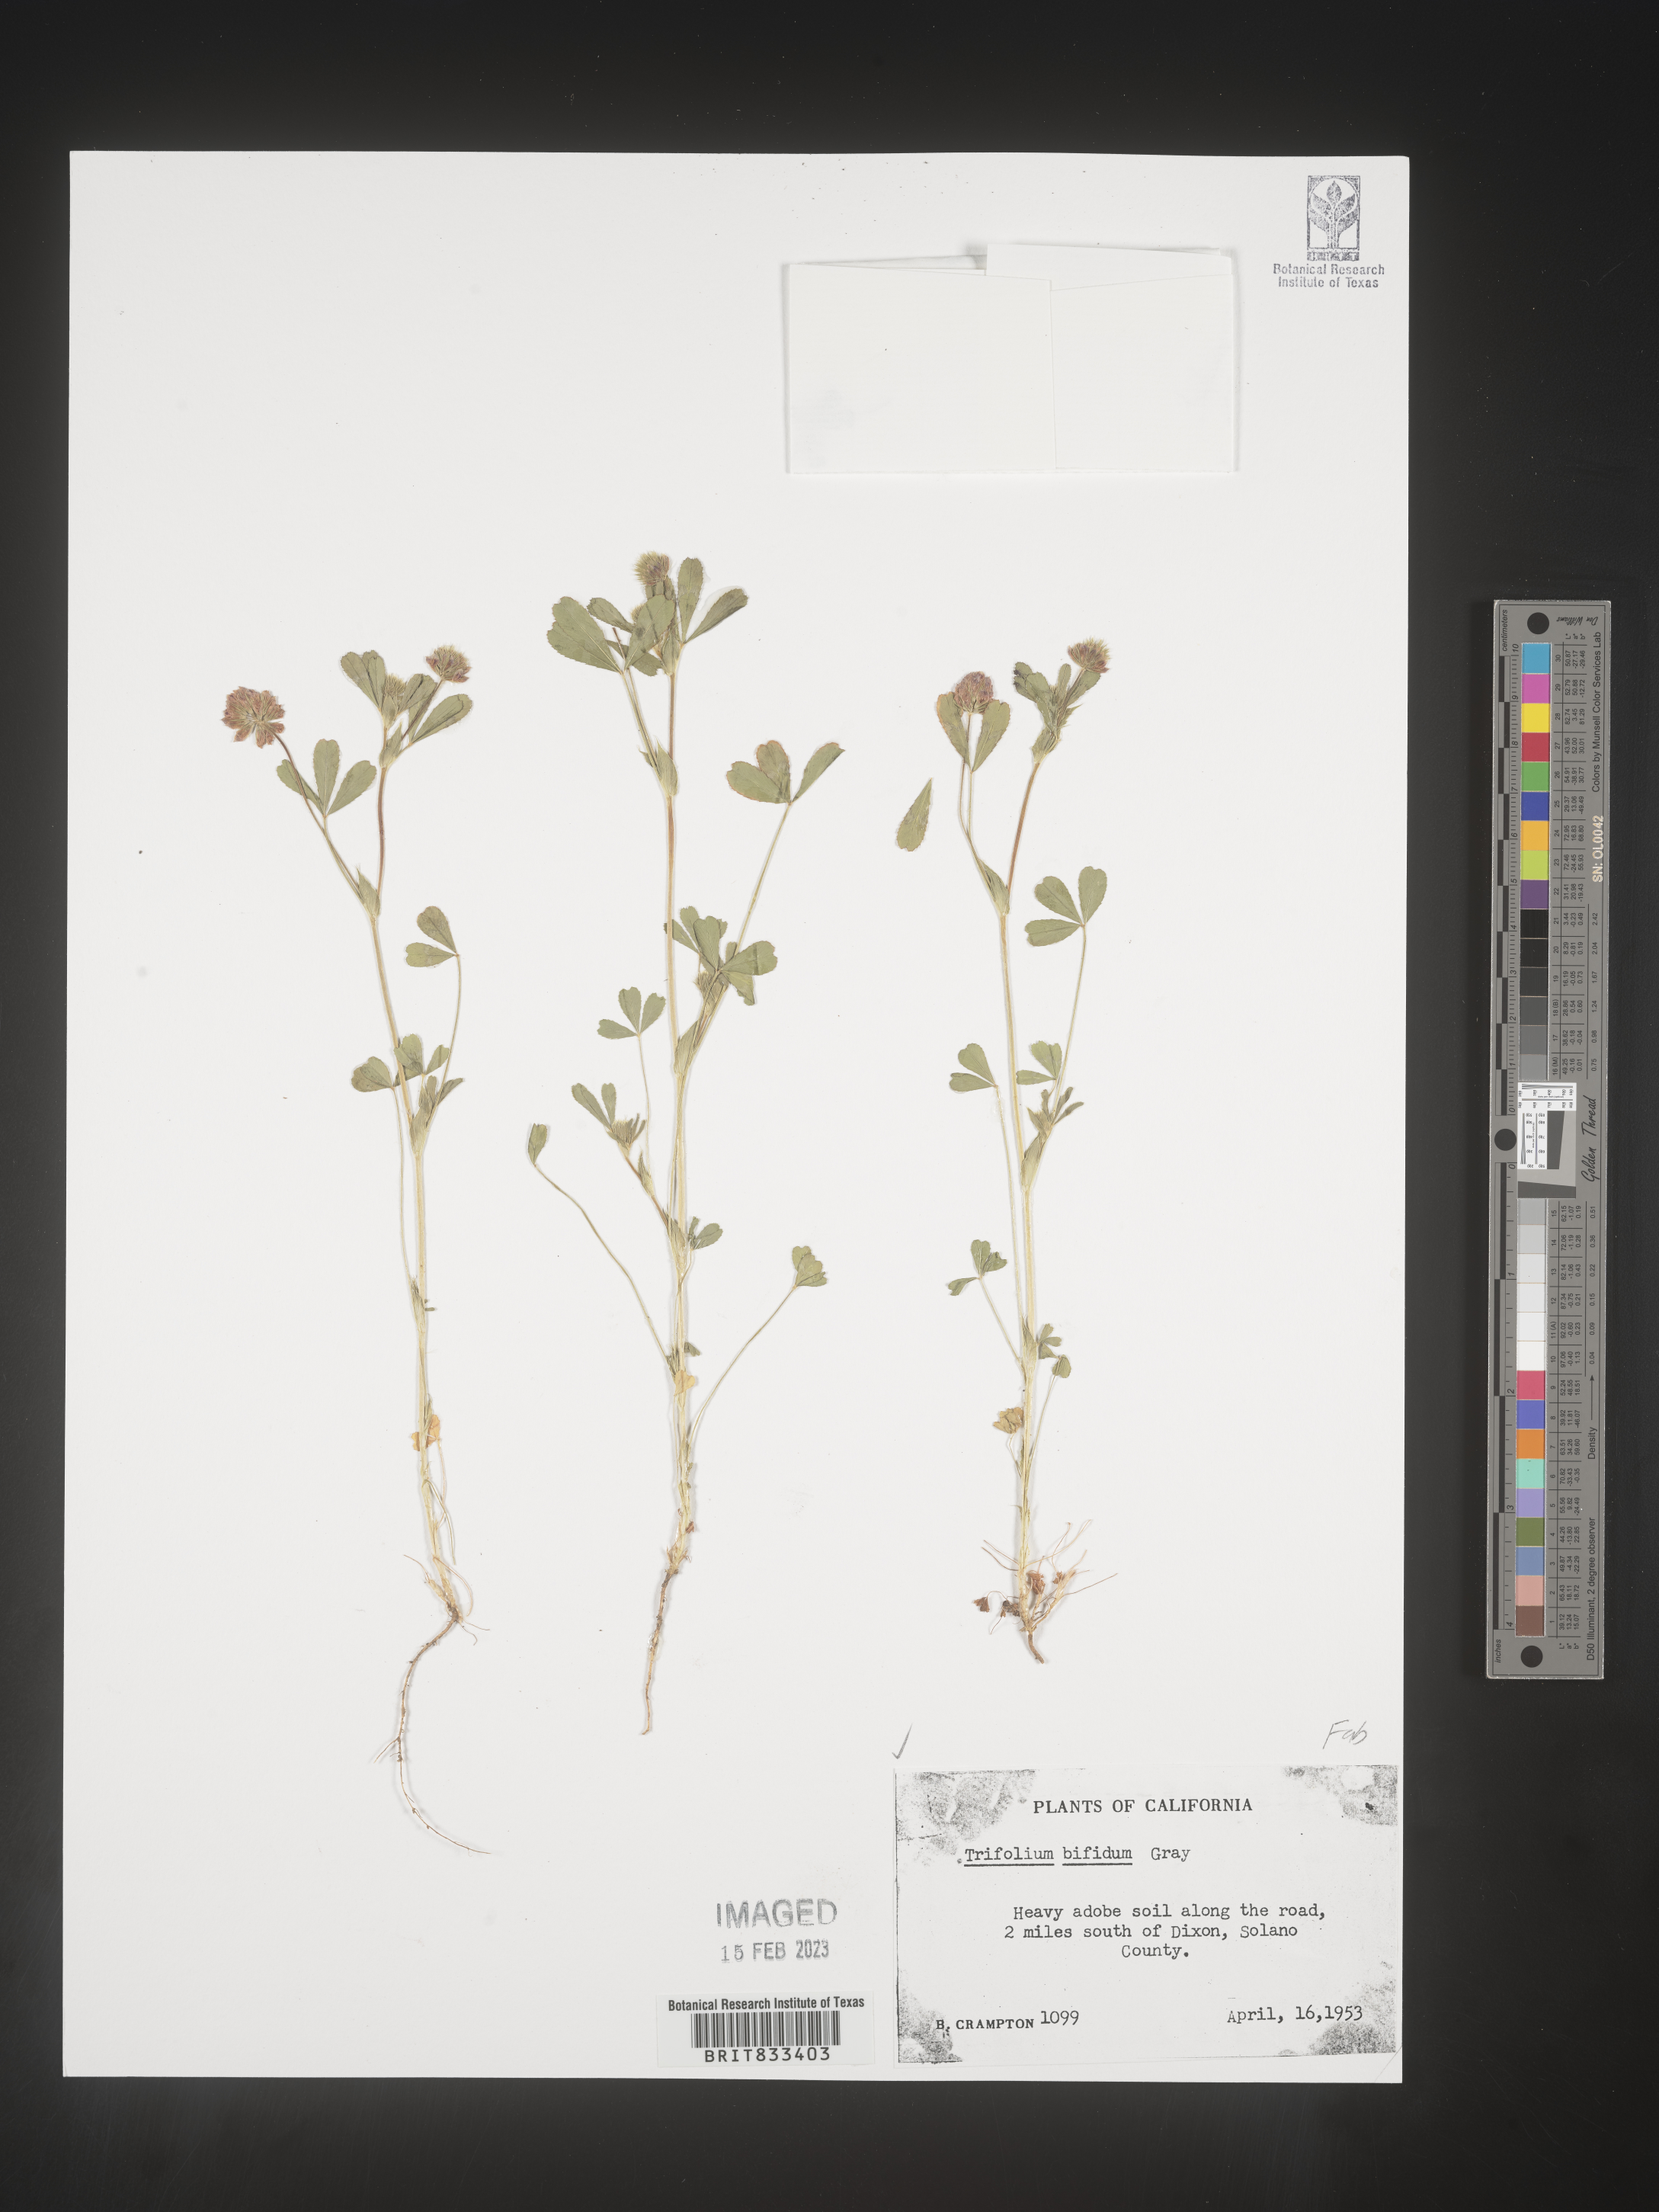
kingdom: Plantae
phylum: Tracheophyta
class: Magnoliopsida
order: Fabales
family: Fabaceae
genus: Trifolium
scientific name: Trifolium
